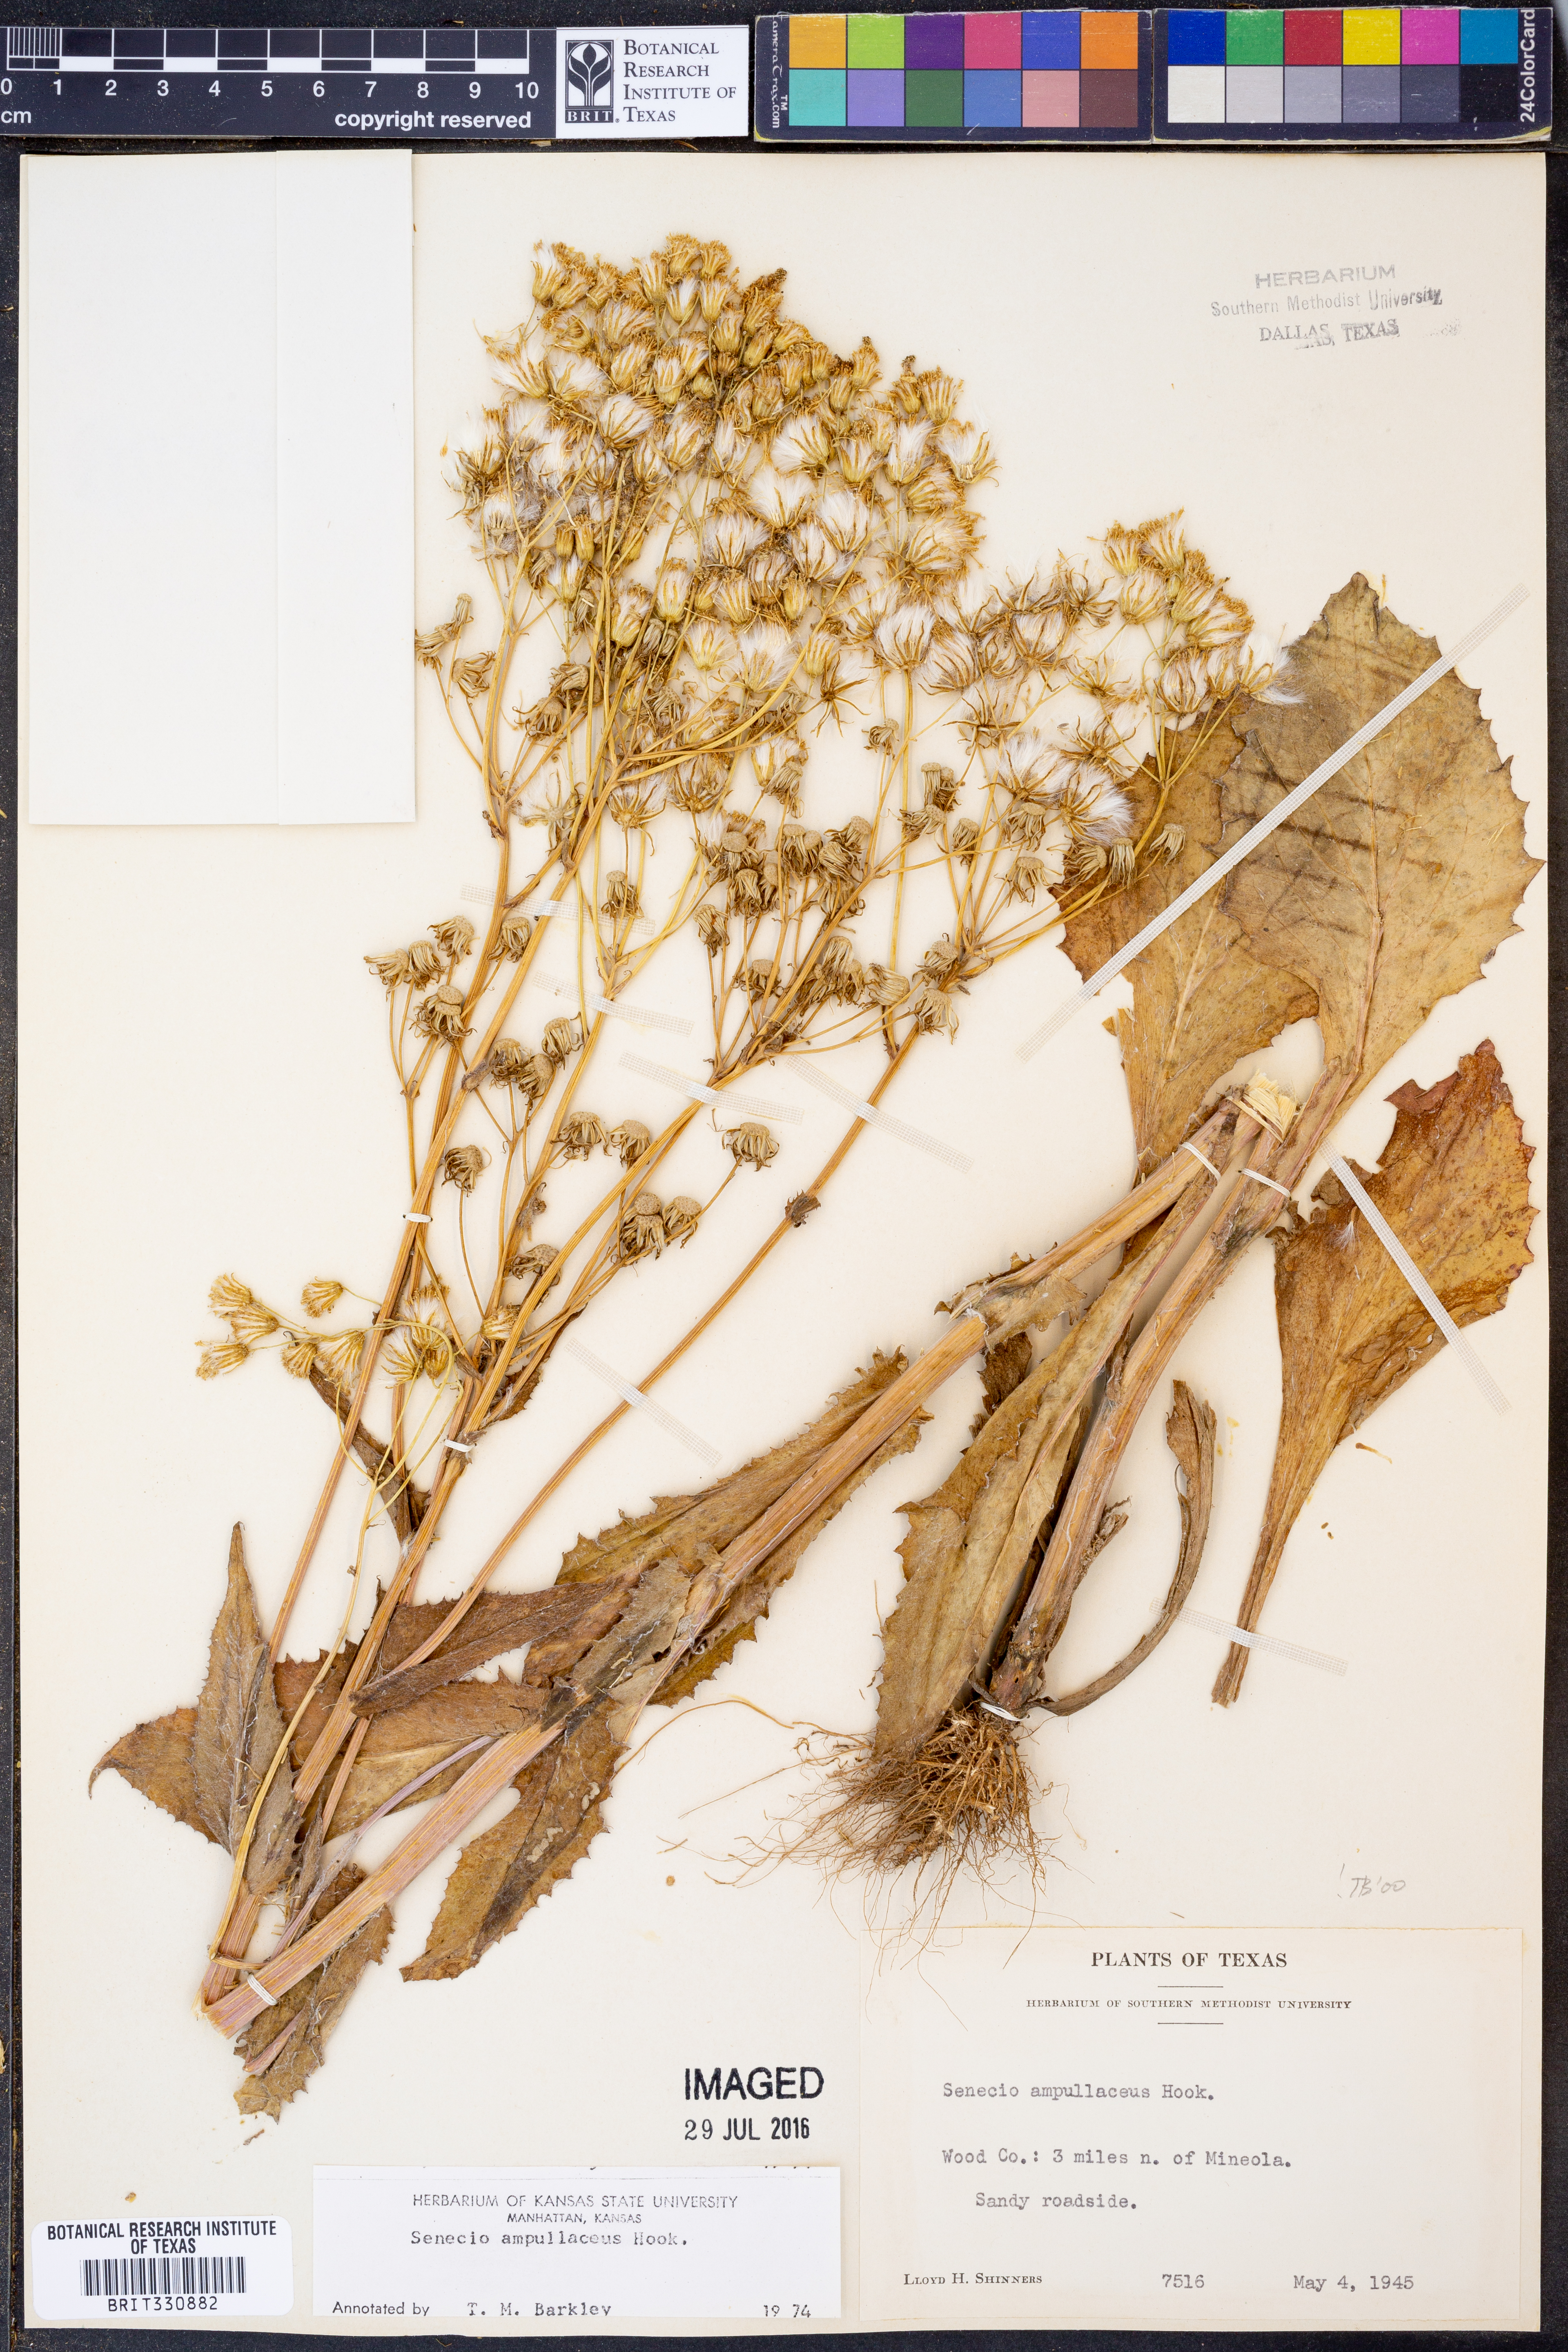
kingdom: Plantae
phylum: Tracheophyta
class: Magnoliopsida
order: Asterales
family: Asteraceae
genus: Senecio
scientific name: Senecio ampullaceus
